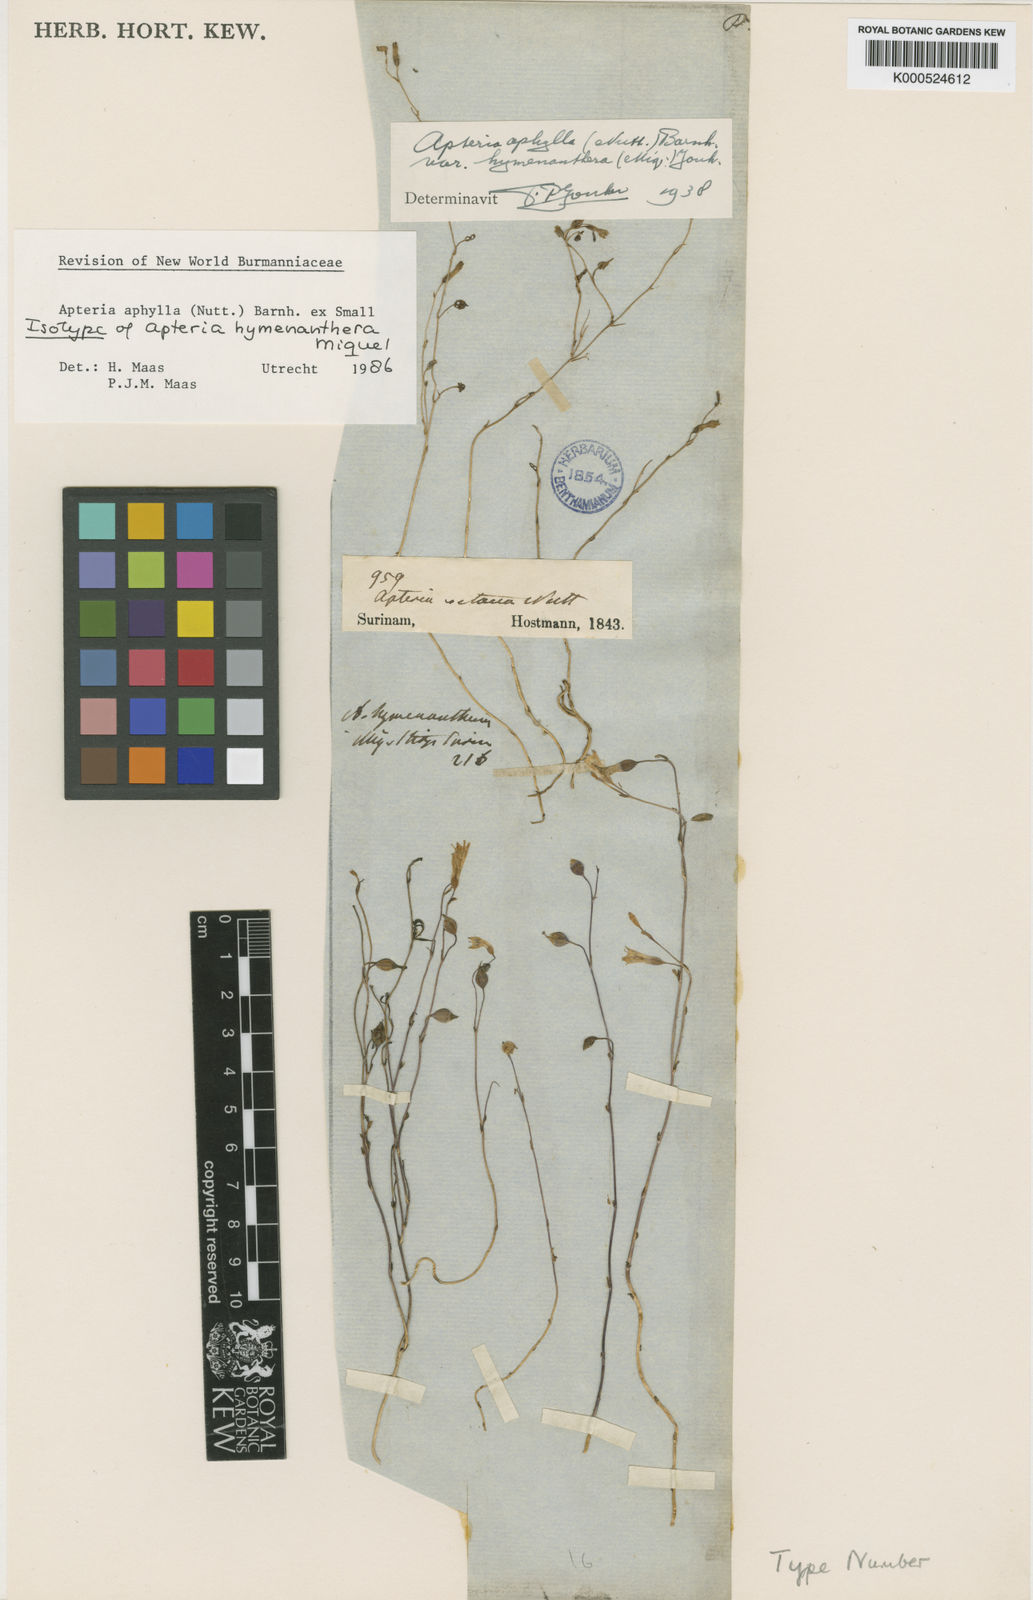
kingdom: Plantae
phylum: Tracheophyta
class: Liliopsida
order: Dioscoreales
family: Burmanniaceae
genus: Apteria
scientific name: Apteria aphylla
